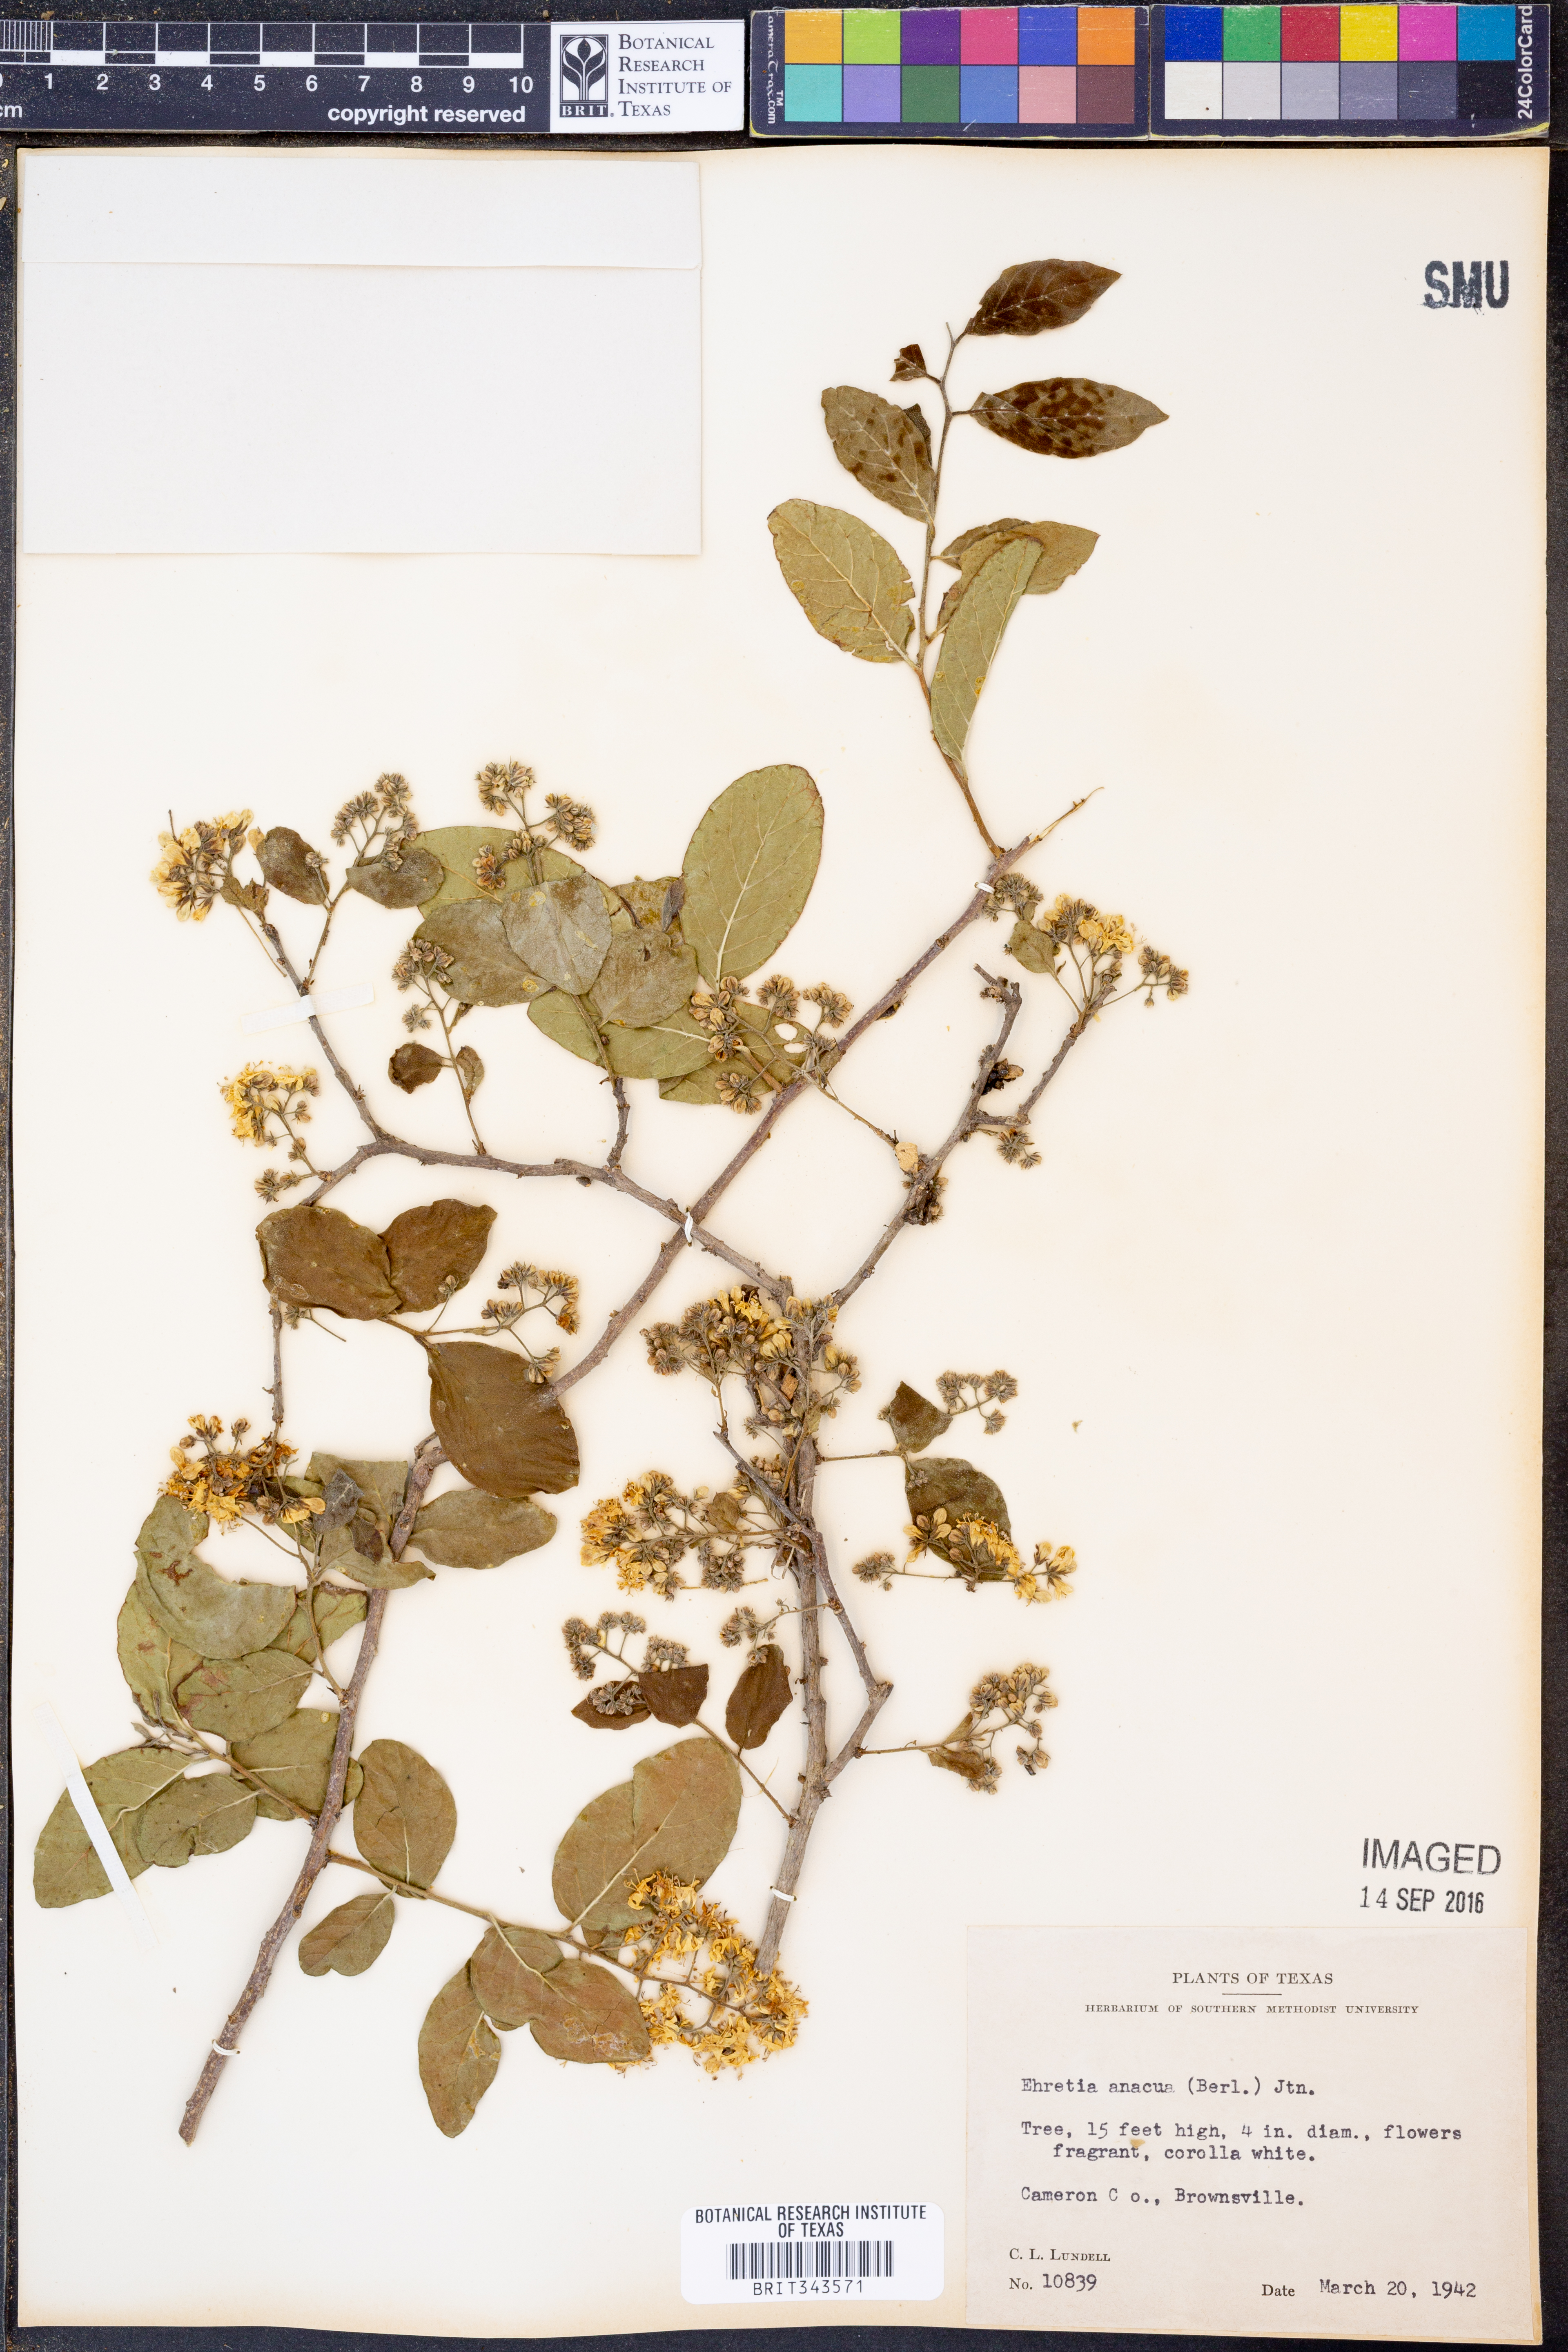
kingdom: Plantae
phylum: Tracheophyta
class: Magnoliopsida
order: Boraginales
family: Ehretiaceae
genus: Ehretia
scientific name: Ehretia anacua
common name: Sugarberry
